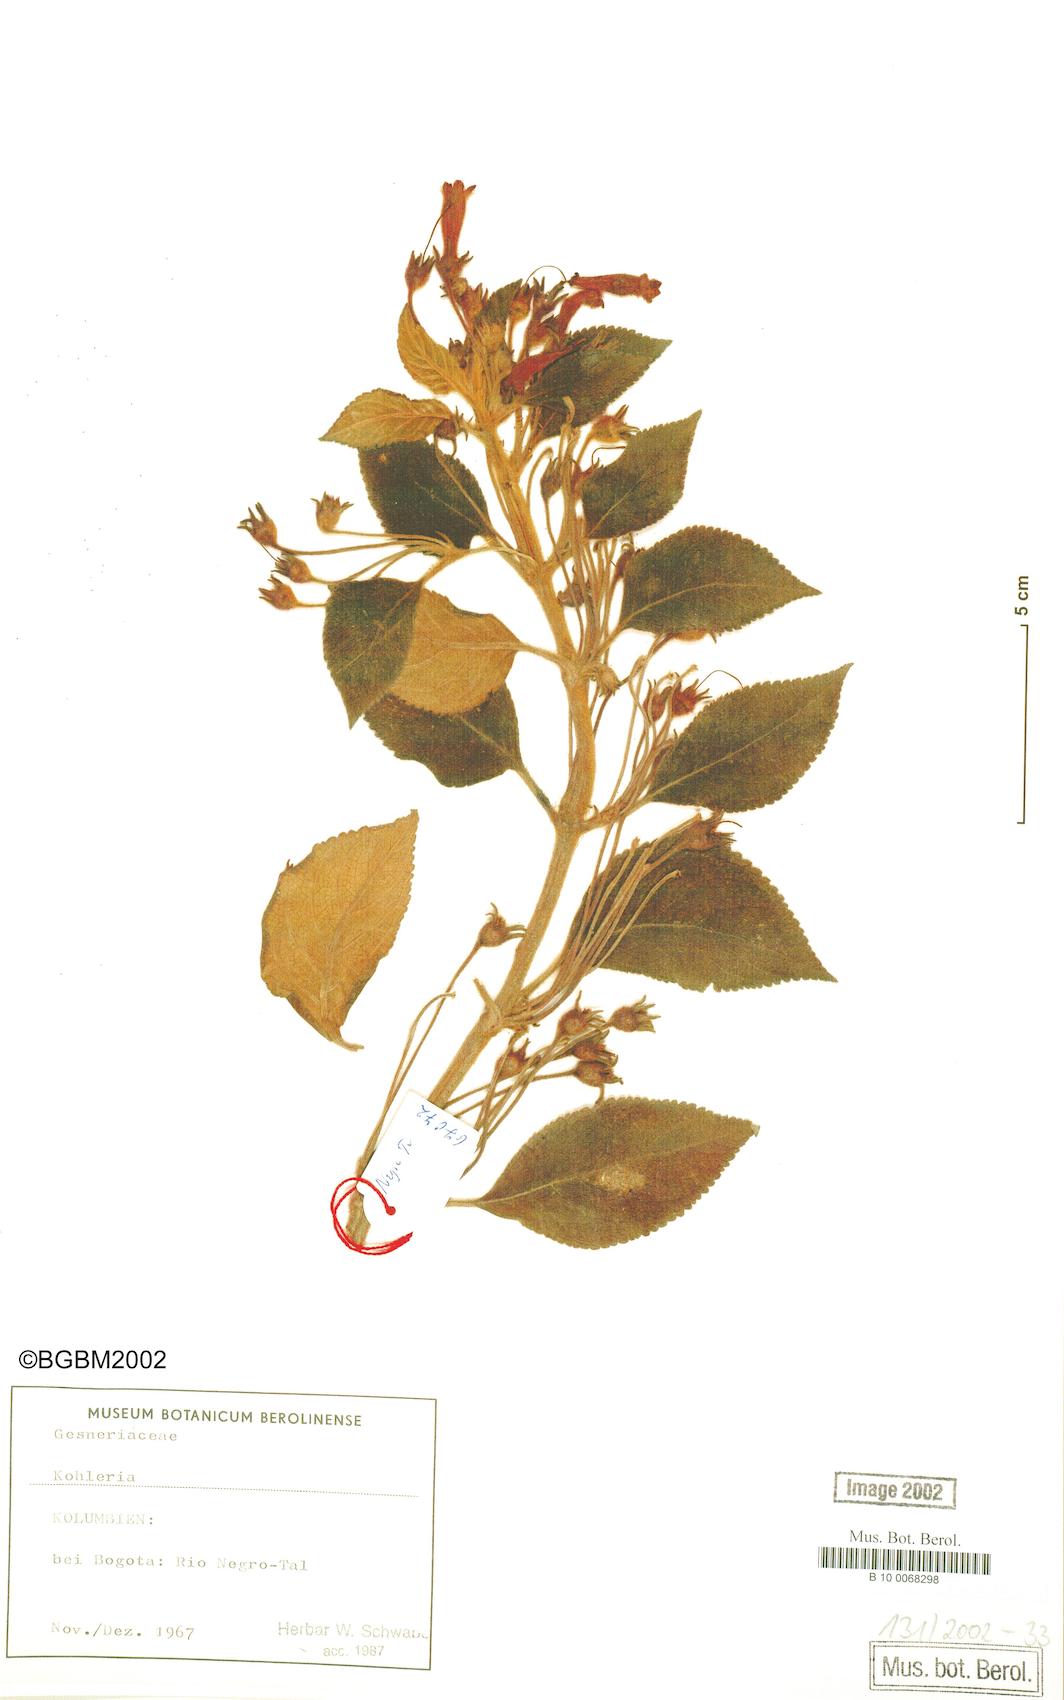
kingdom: Plantae
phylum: Tracheophyta
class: Magnoliopsida
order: Lamiales
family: Gesneriaceae
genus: Kohleria
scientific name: Kohleria
